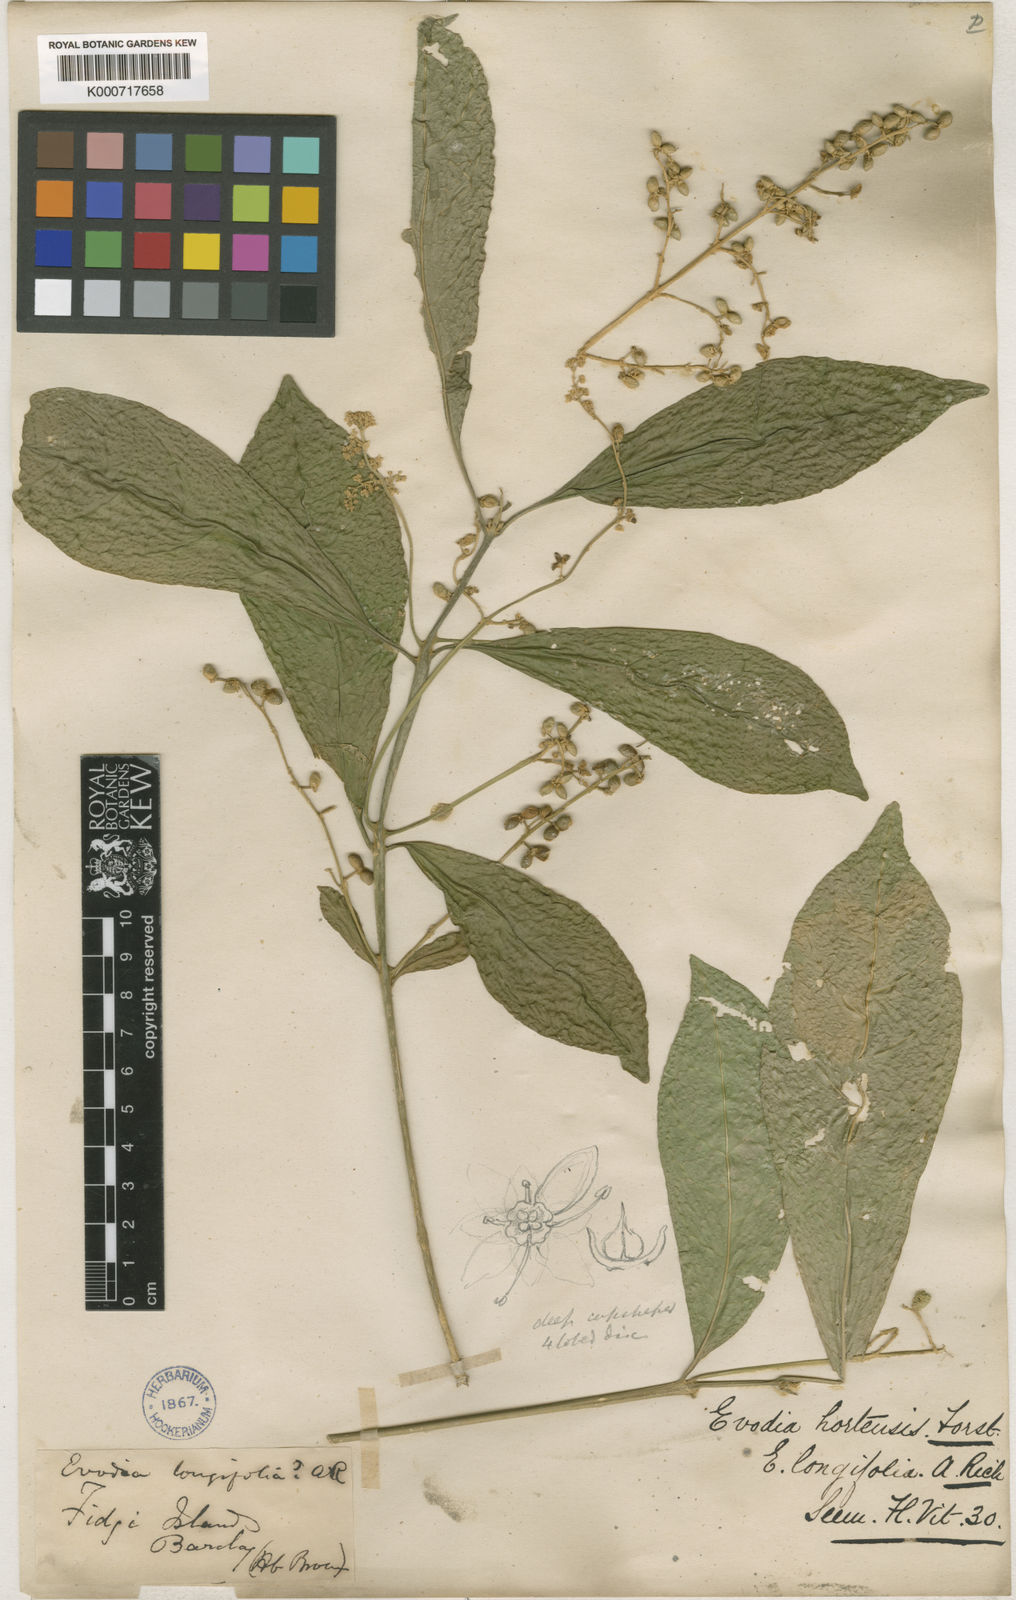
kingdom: Plantae
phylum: Tracheophyta
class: Magnoliopsida
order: Sapindales
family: Rutaceae
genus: Euodia
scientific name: Euodia hortensis
